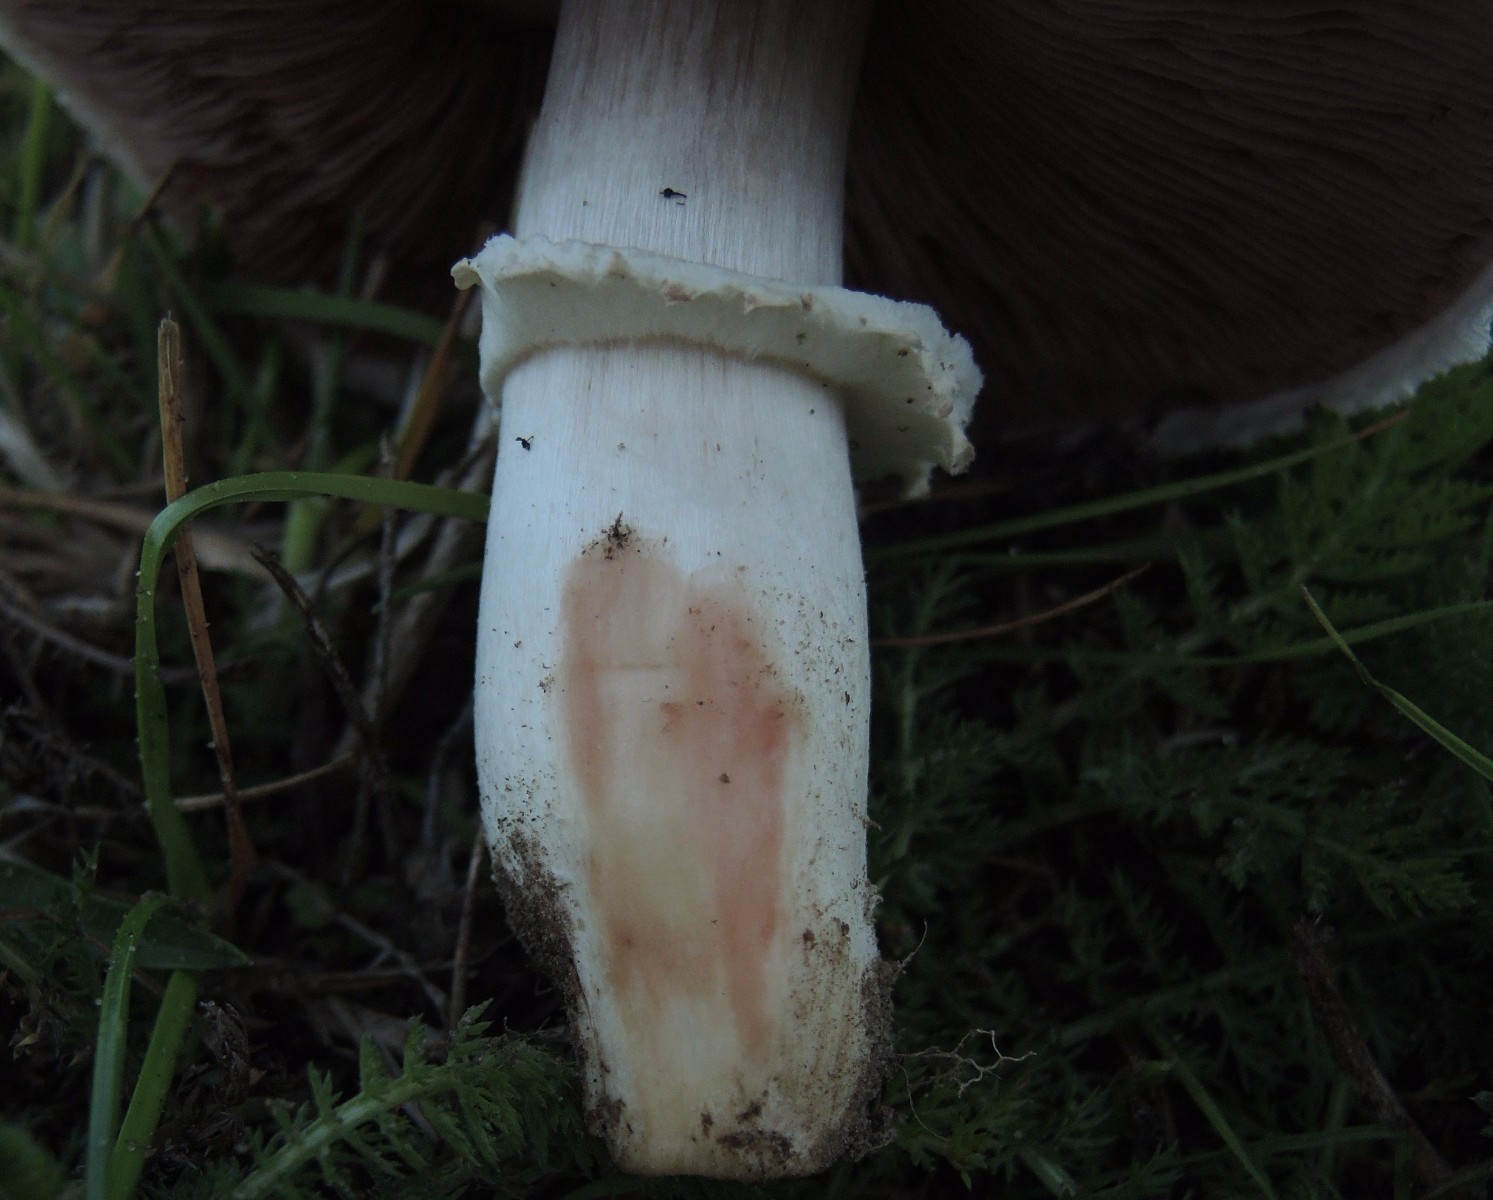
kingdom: Fungi
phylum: Basidiomycota
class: Agaricomycetes
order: Agaricales
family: Agaricaceae
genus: Agaricus
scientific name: Agaricus
